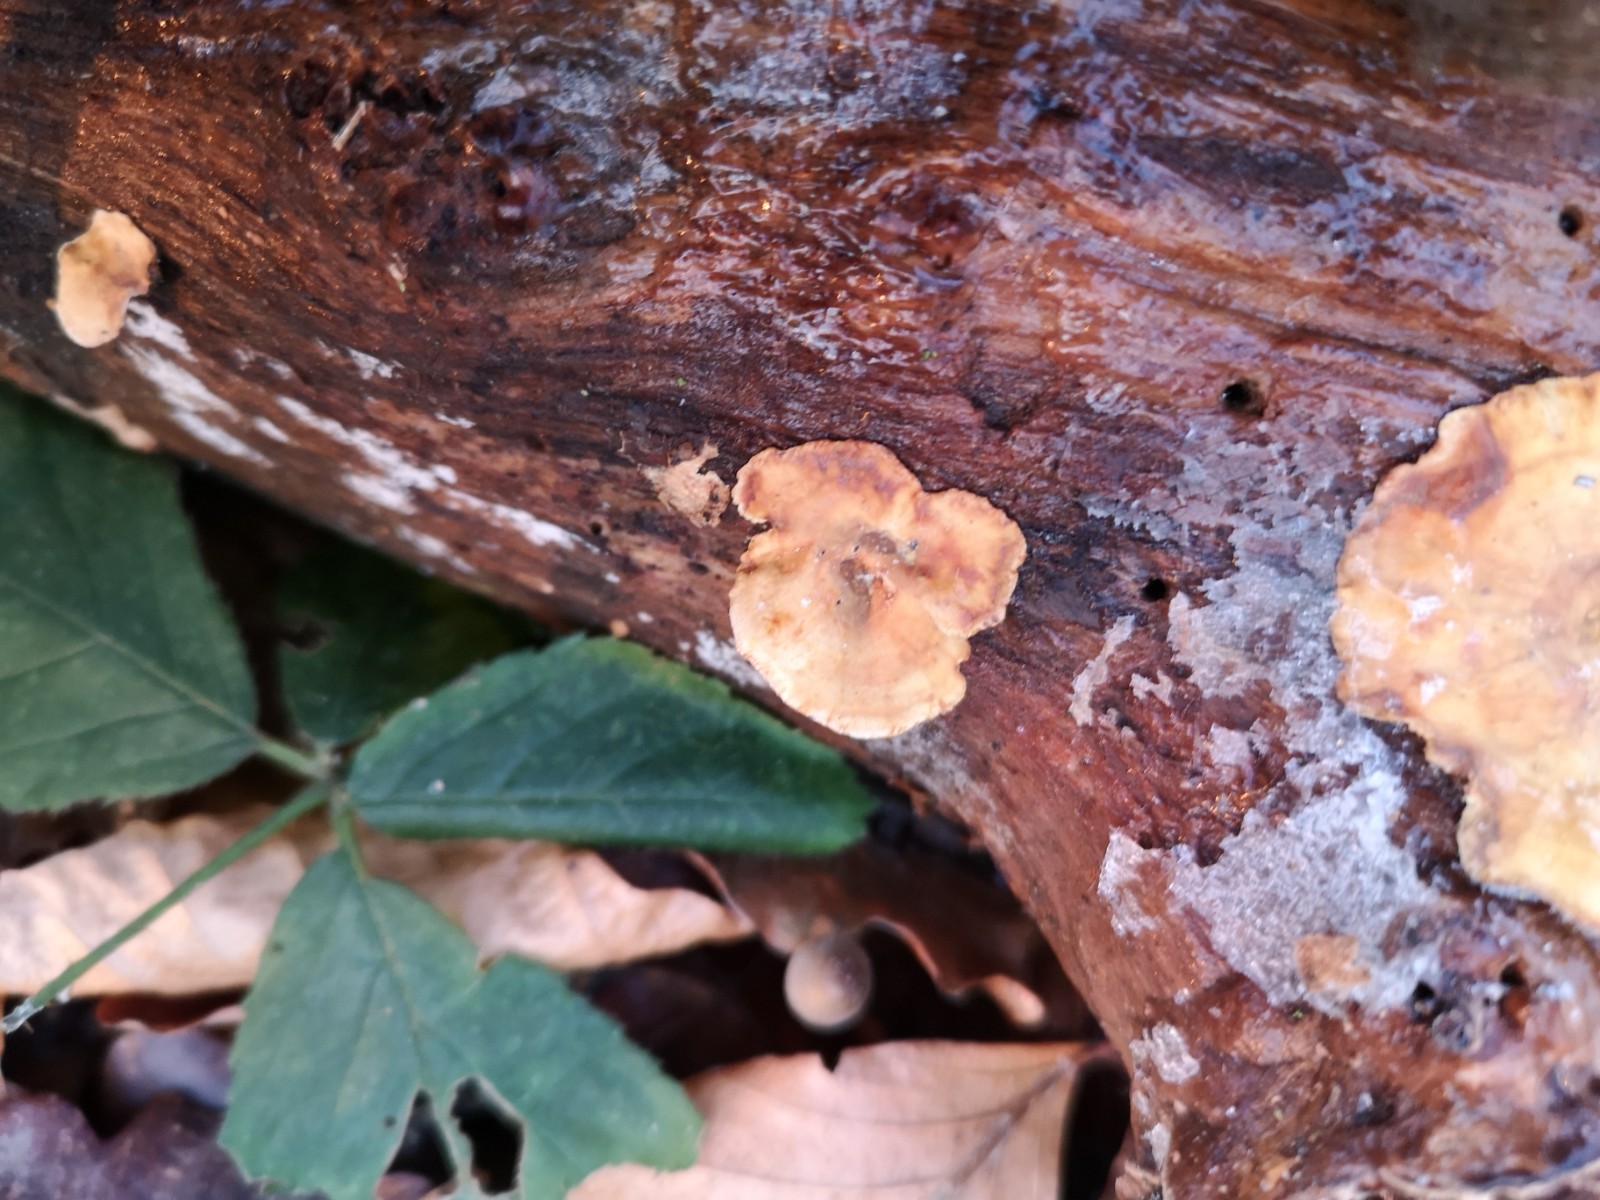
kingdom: Fungi
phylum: Basidiomycota
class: Agaricomycetes
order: Russulales
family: Stereaceae
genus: Stereum
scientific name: Stereum hirsutum
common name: håret lædersvamp
